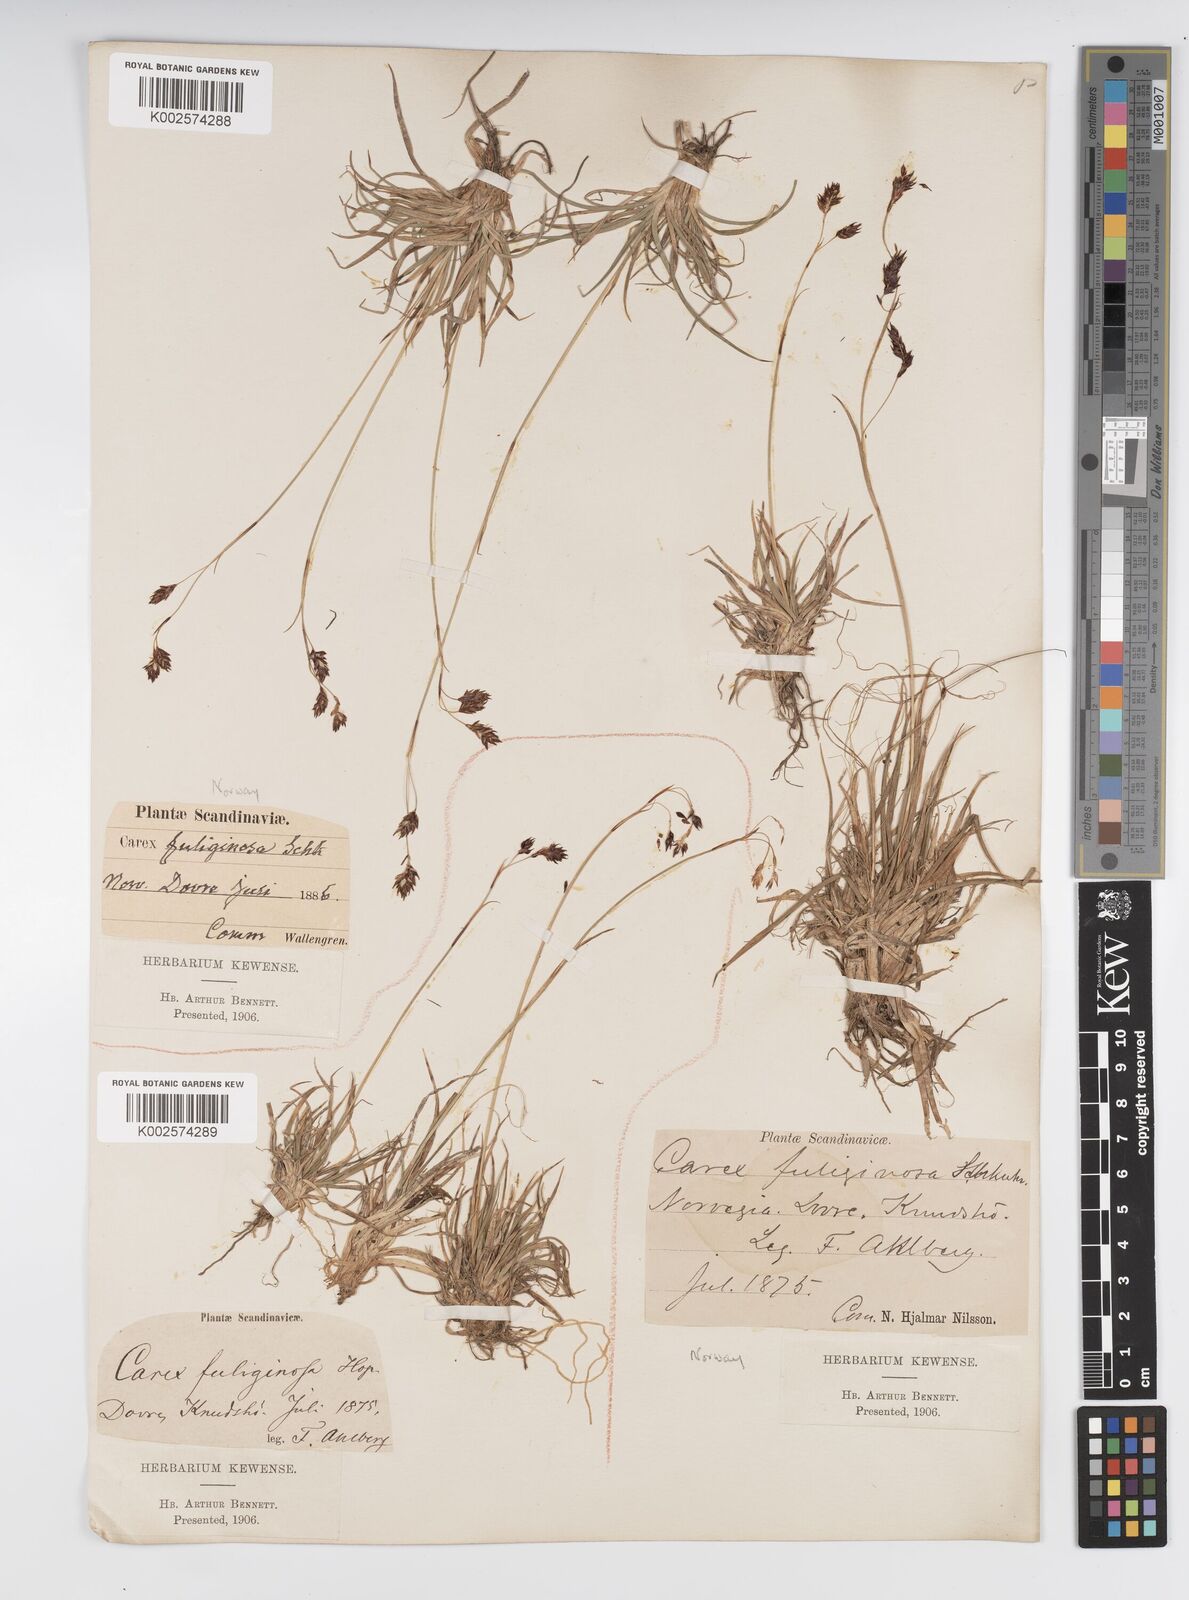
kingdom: Plantae
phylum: Tracheophyta
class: Liliopsida
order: Poales
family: Cyperaceae
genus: Carex
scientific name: Carex fuliginosa
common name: Few-flowered sedge
